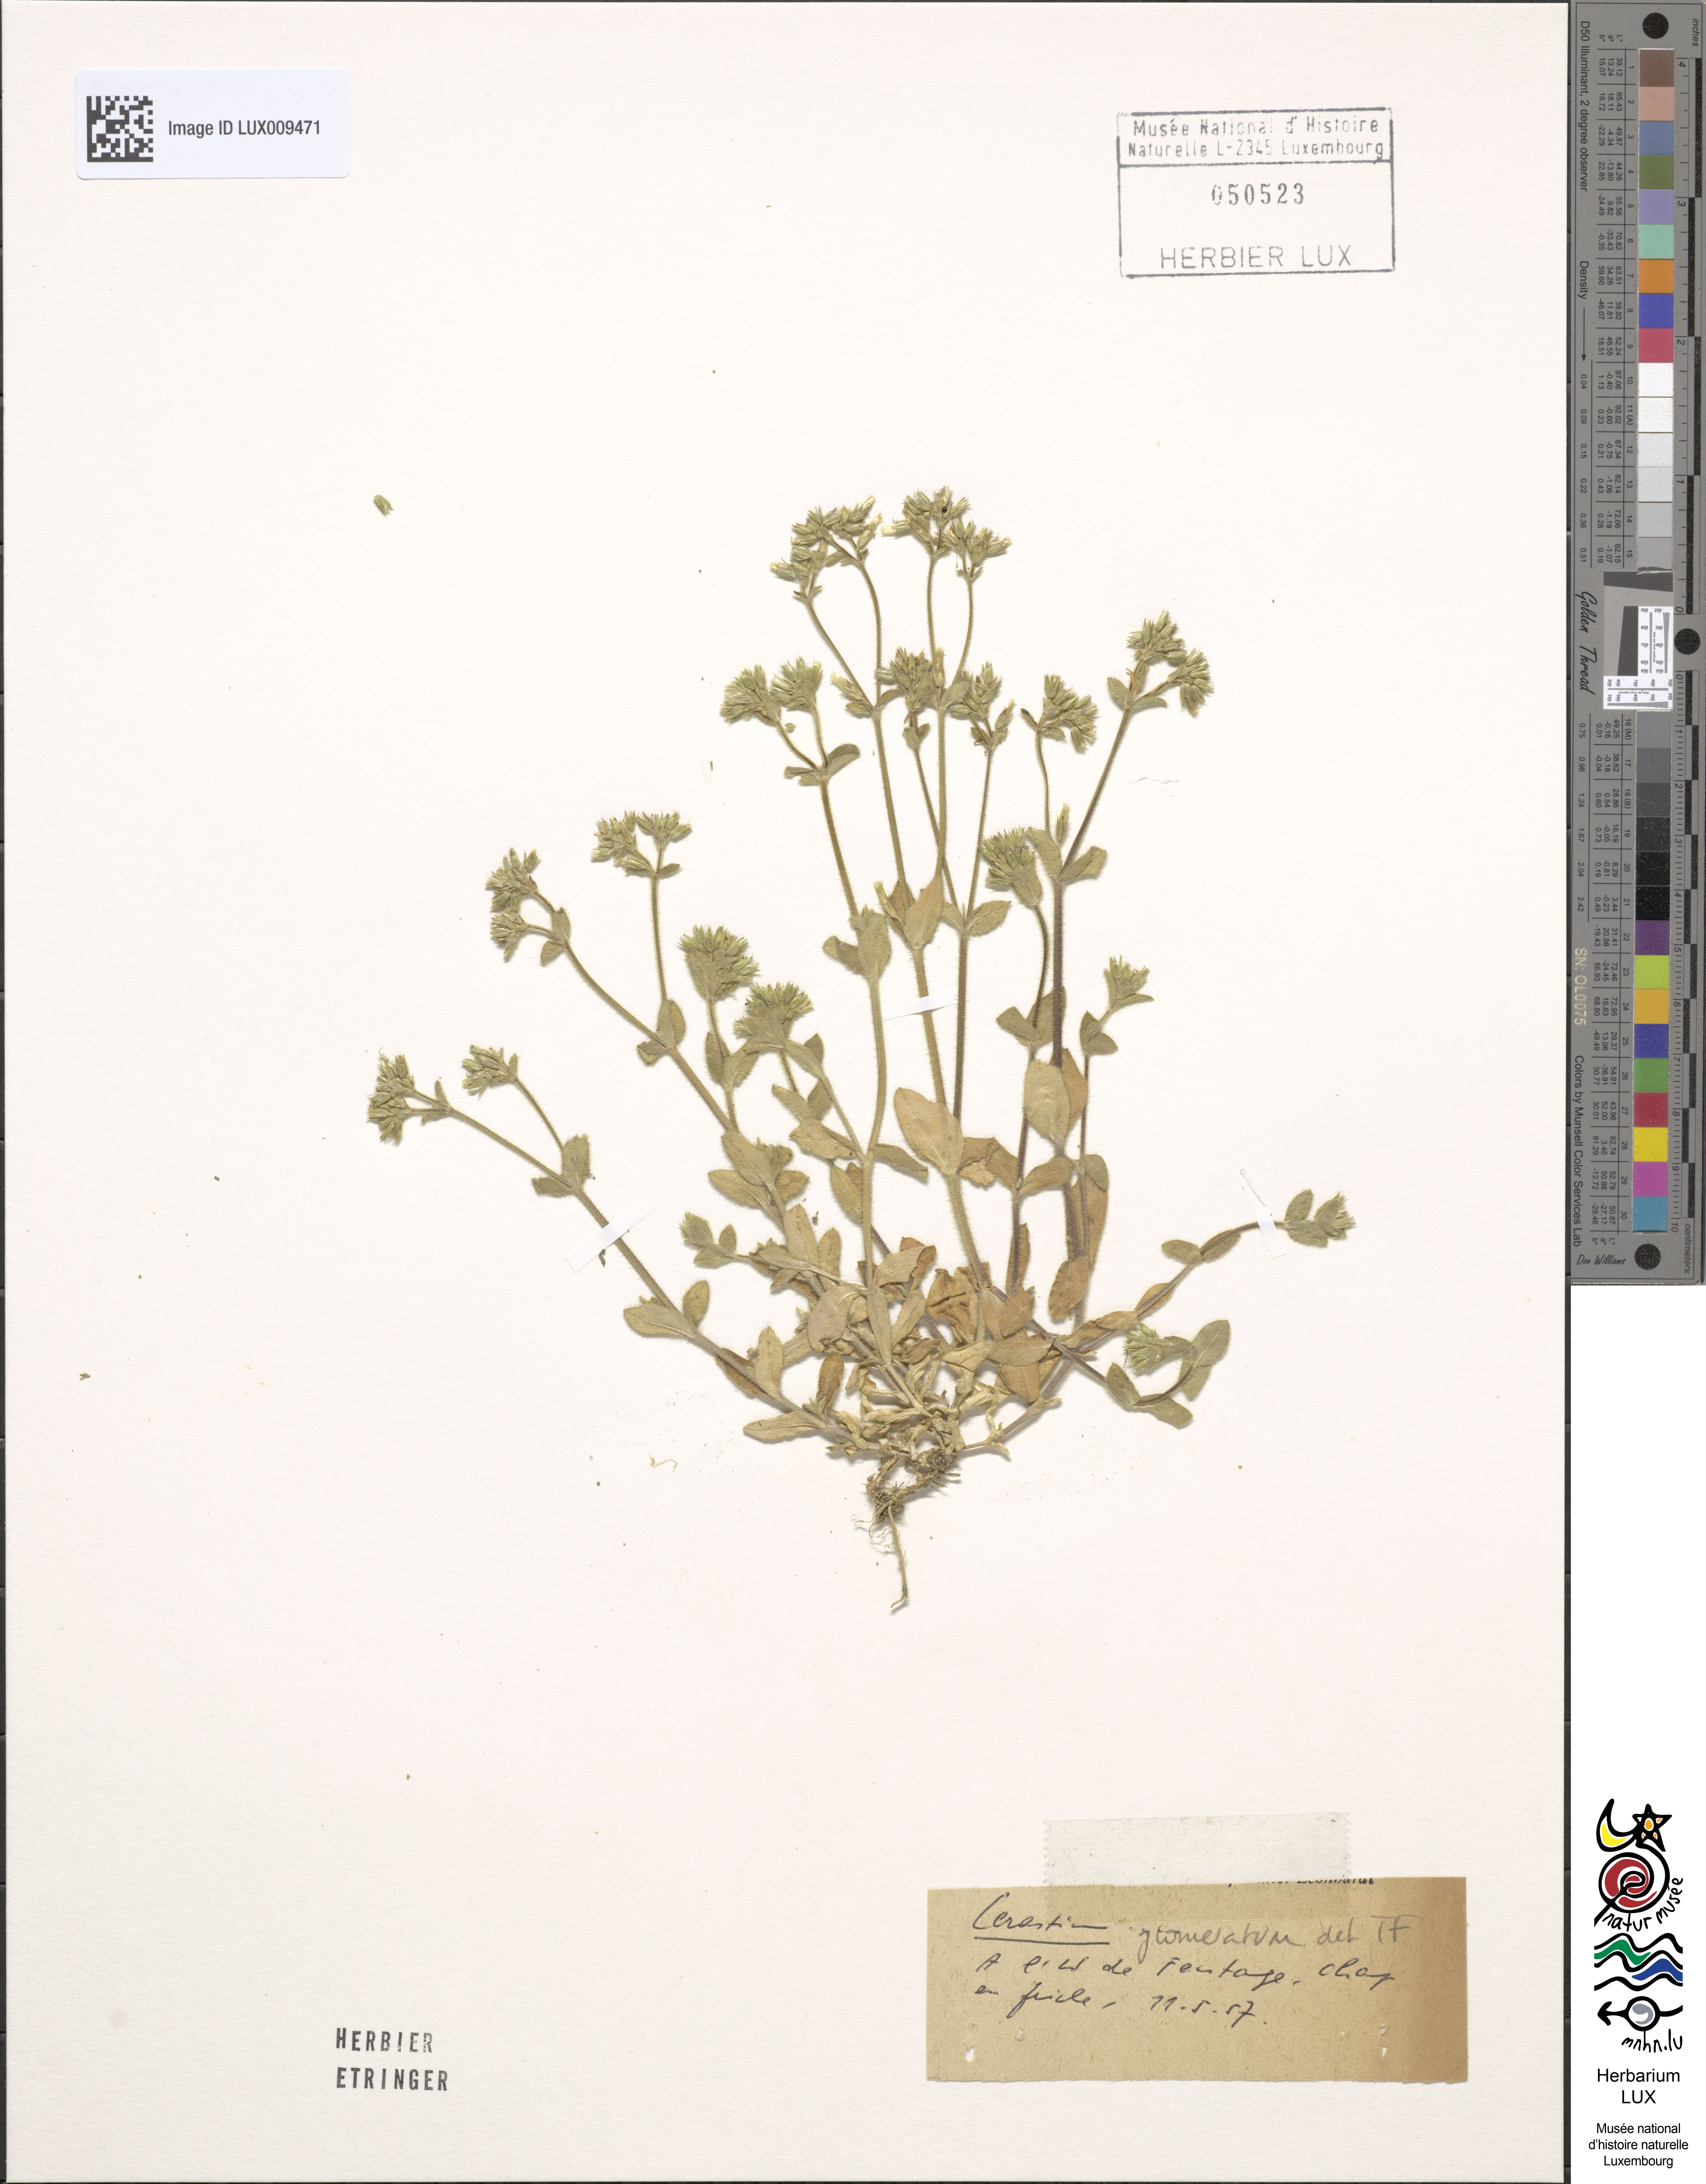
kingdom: Plantae
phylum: Tracheophyta
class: Magnoliopsida
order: Caryophyllales
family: Caryophyllaceae
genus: Cerastium
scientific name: Cerastium glomeratum
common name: Sticky chickweed
